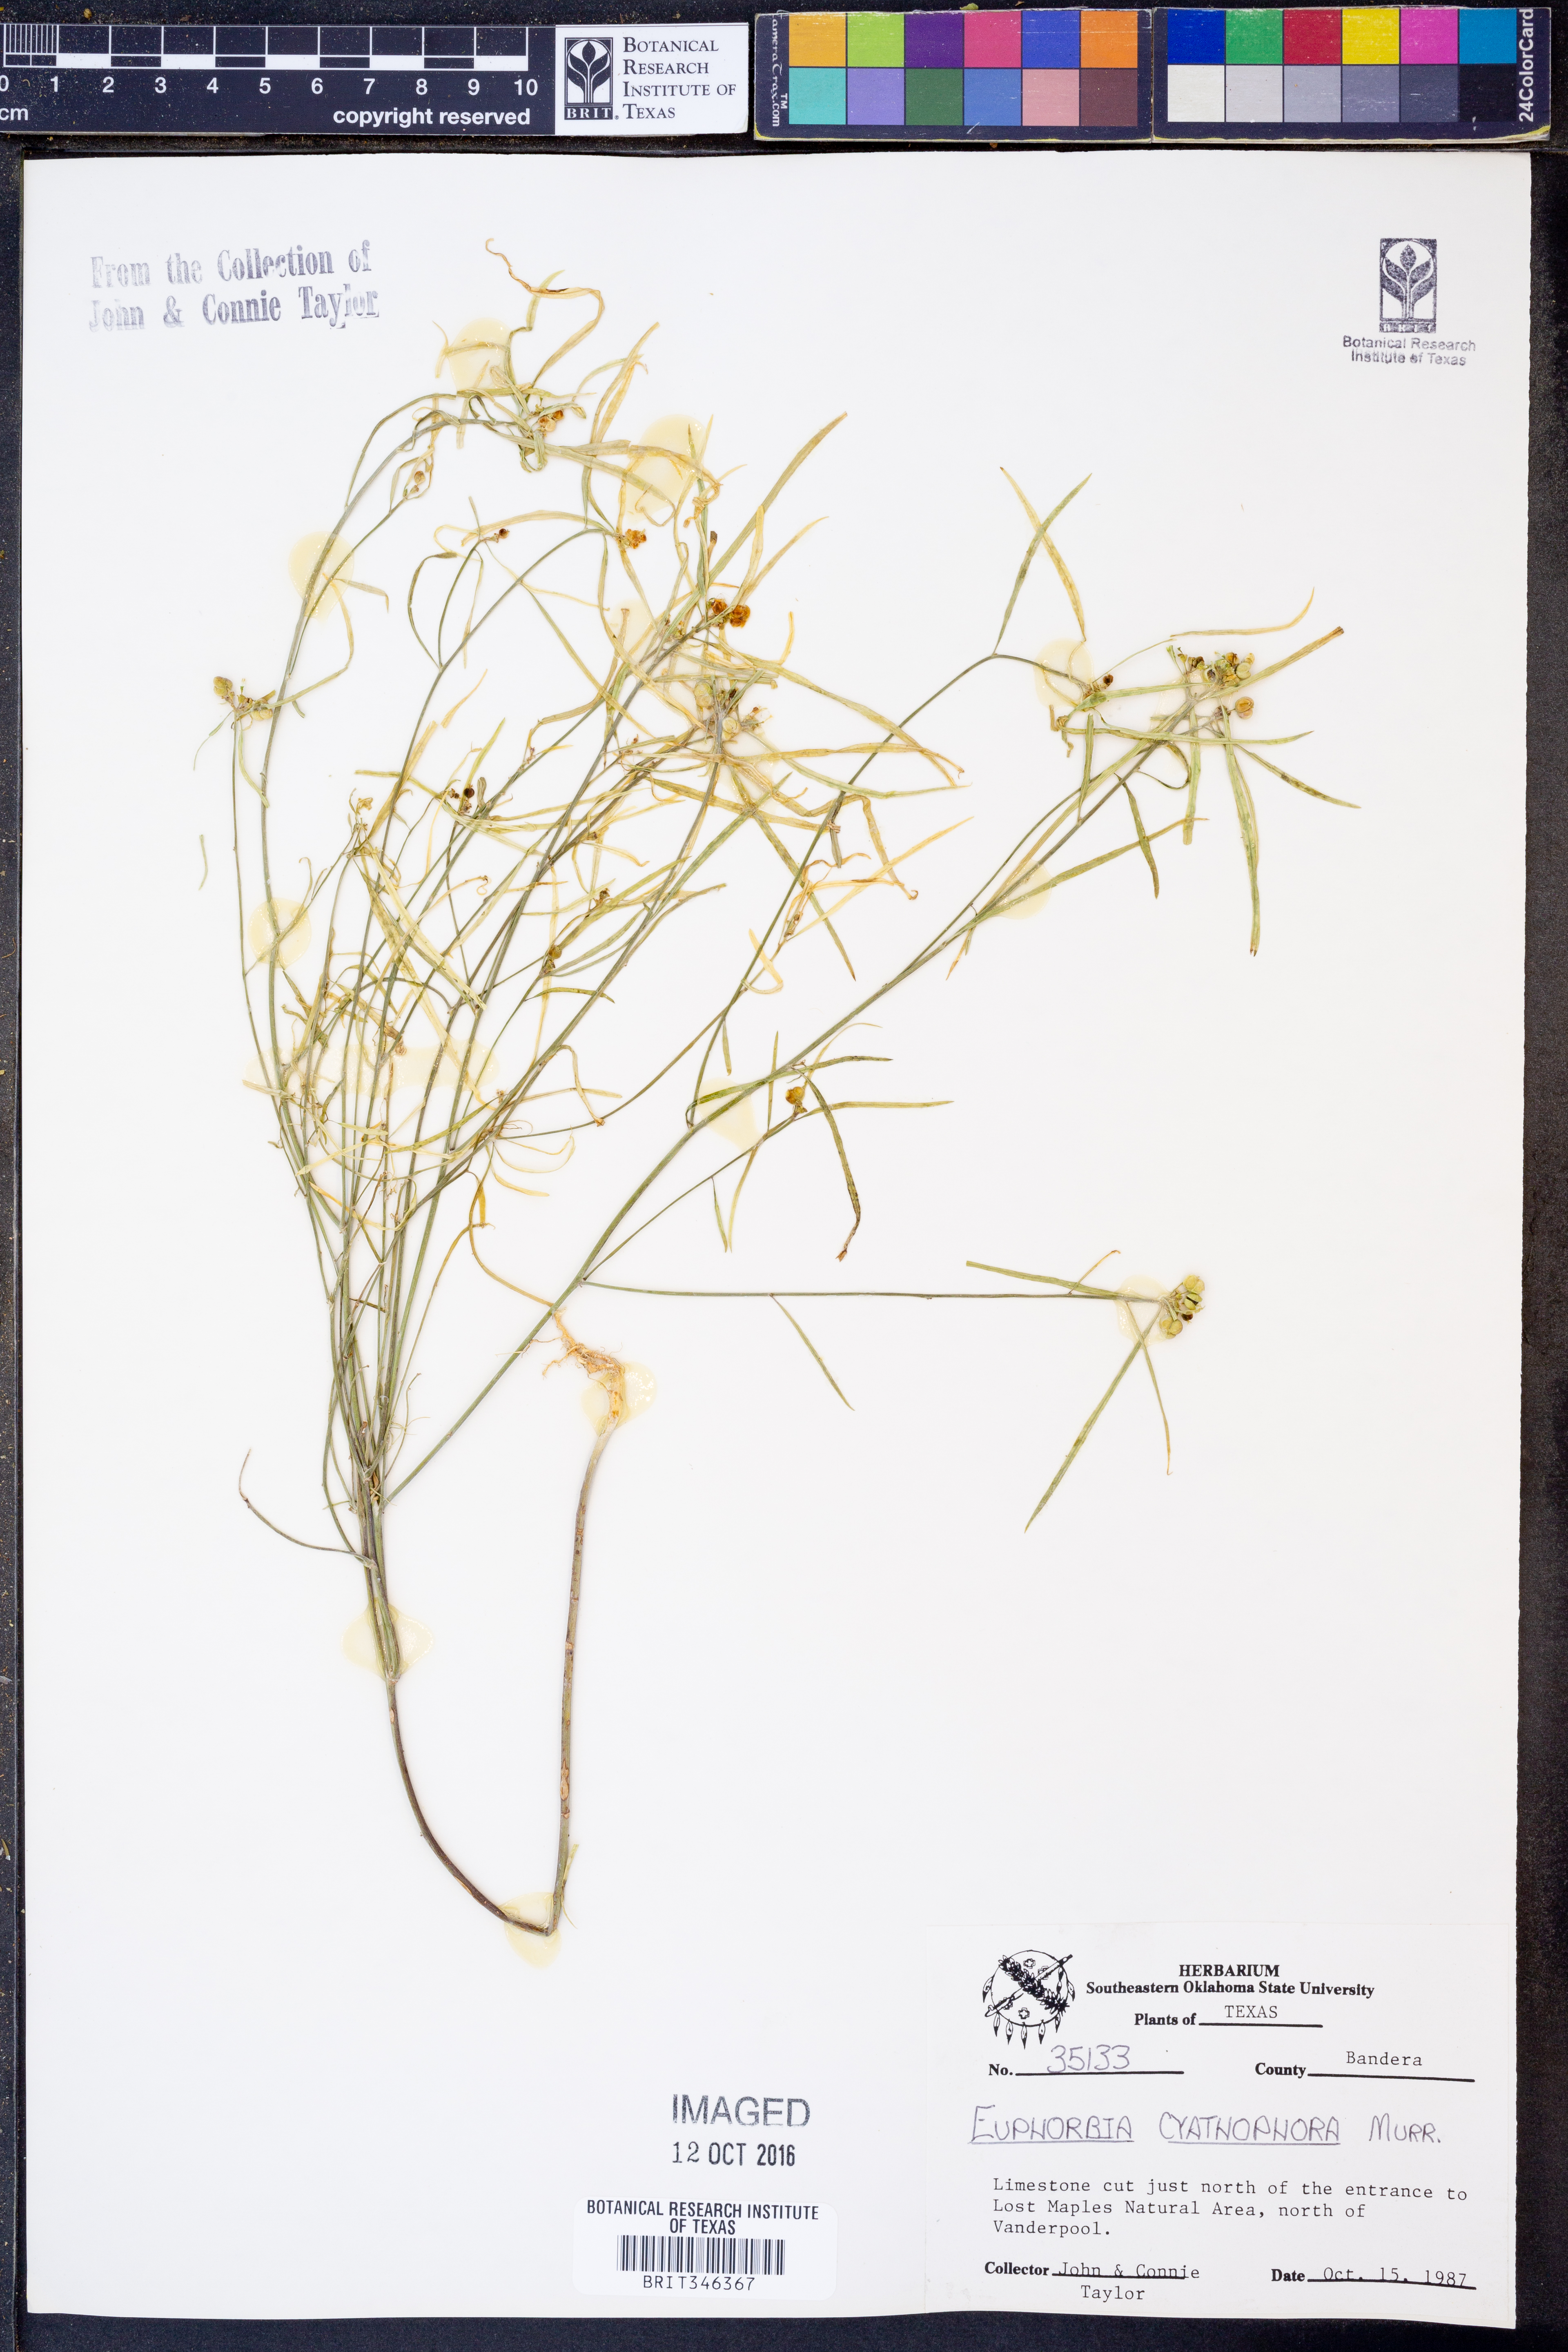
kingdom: Plantae
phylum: Tracheophyta
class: Magnoliopsida
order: Malpighiales
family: Euphorbiaceae
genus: Euphorbia
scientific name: Euphorbia heterophylla
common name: Mexican fireplant
